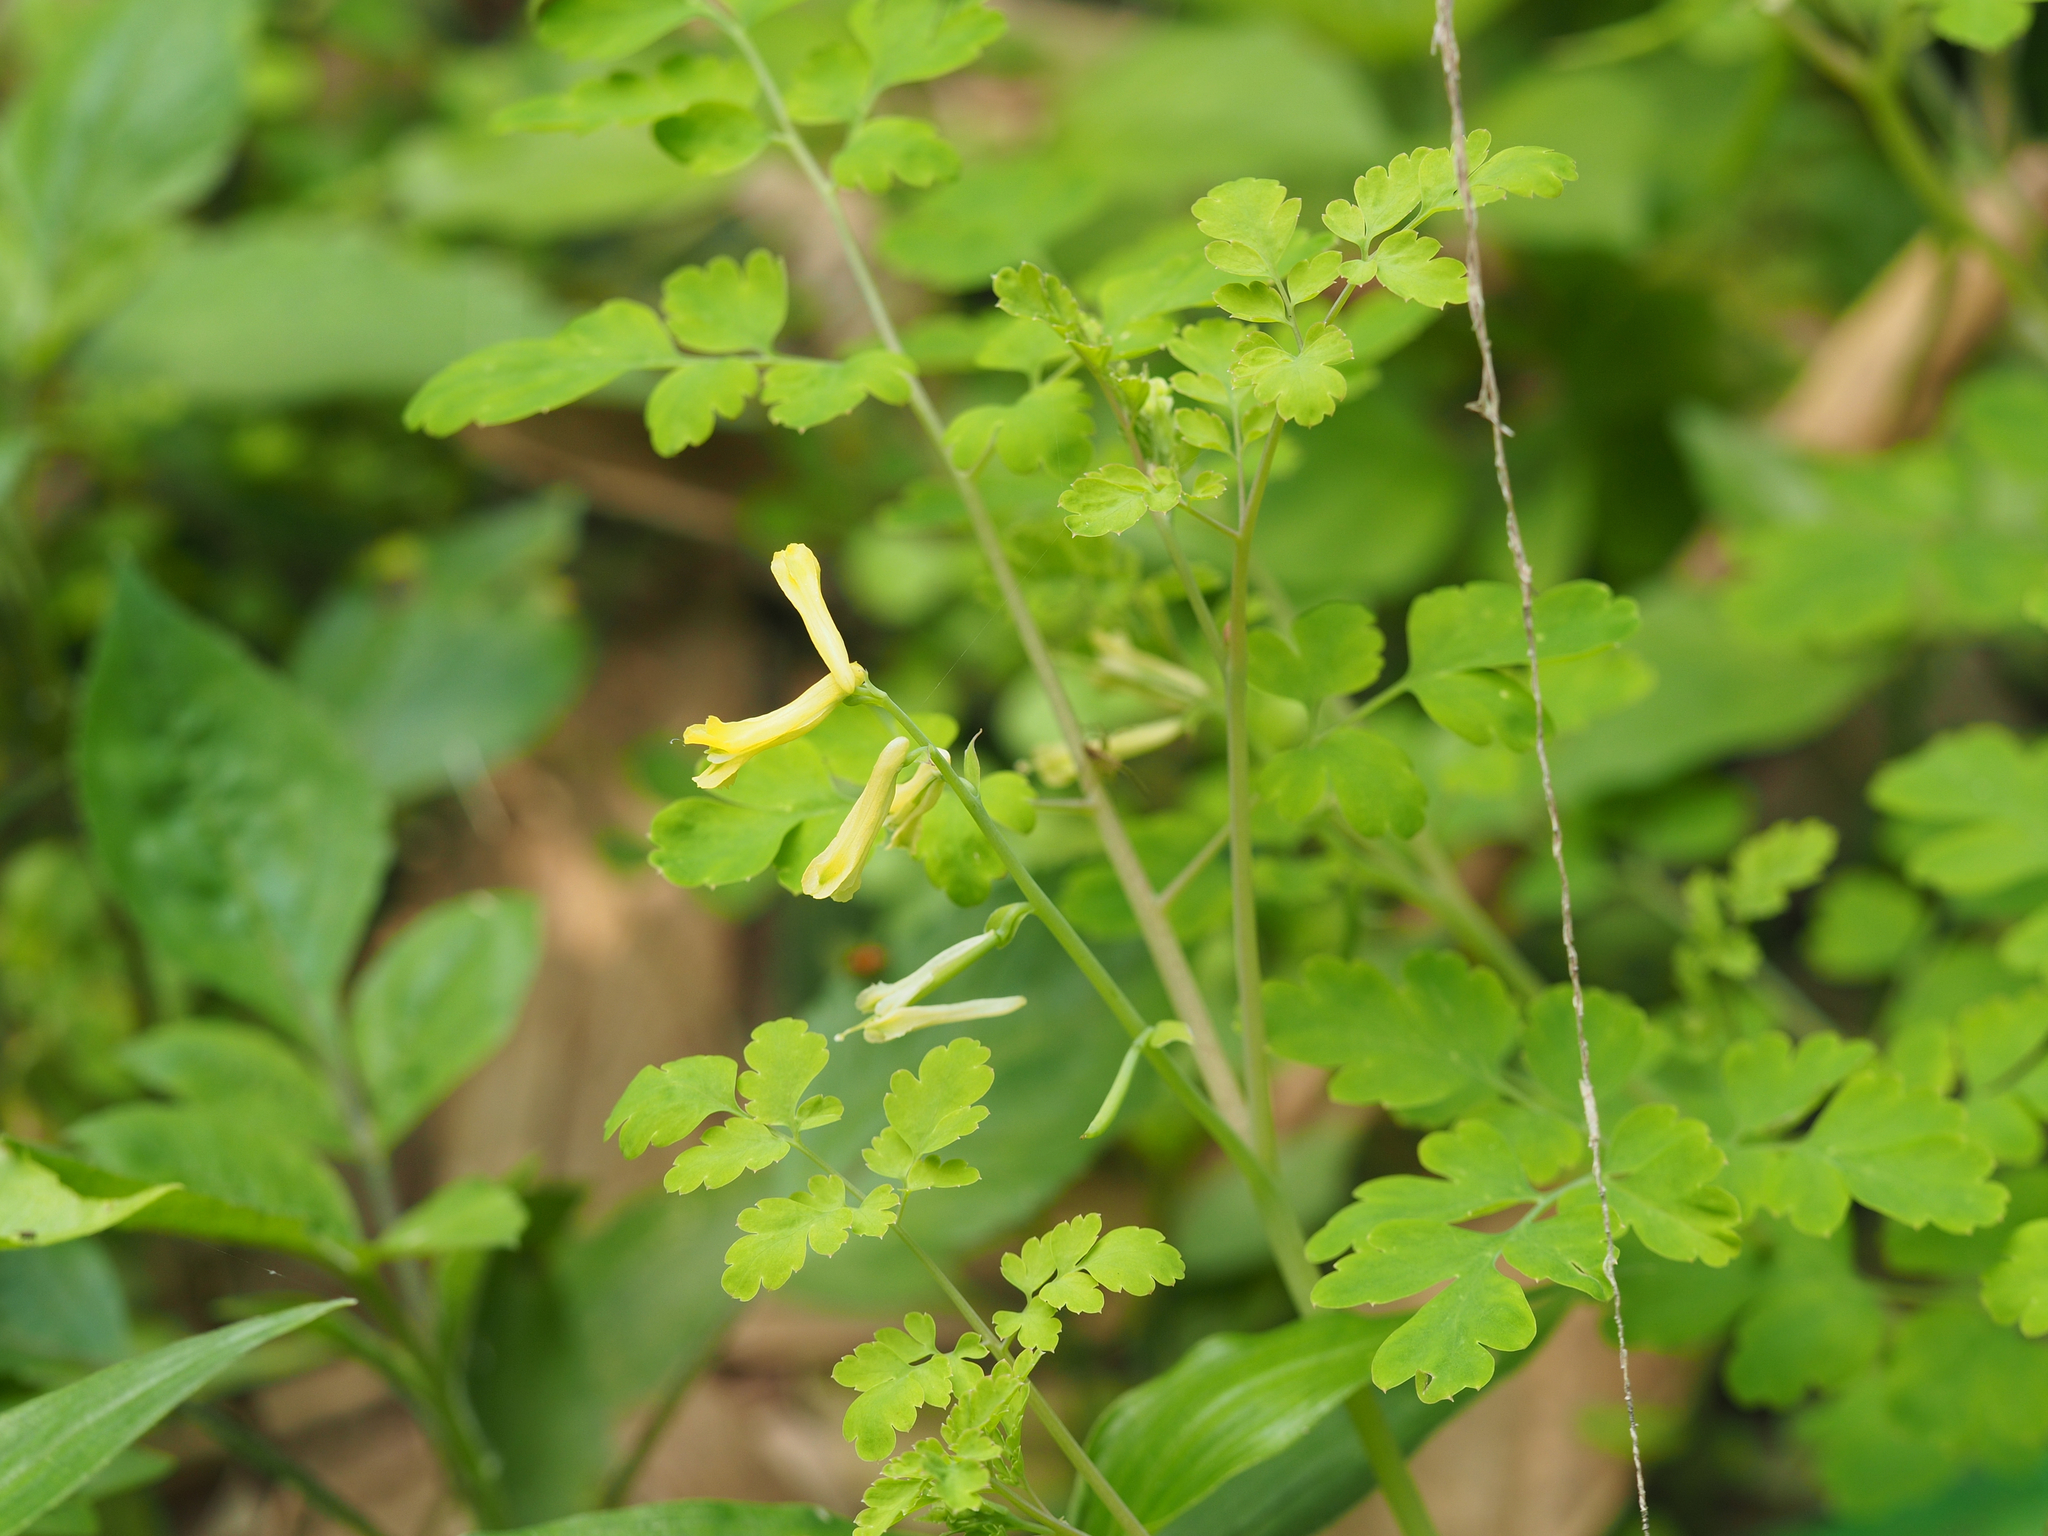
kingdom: Plantae
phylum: Tracheophyta
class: Magnoliopsida
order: Ranunculales
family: Papaveraceae
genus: Corydalis
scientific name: Corydalis balansae
